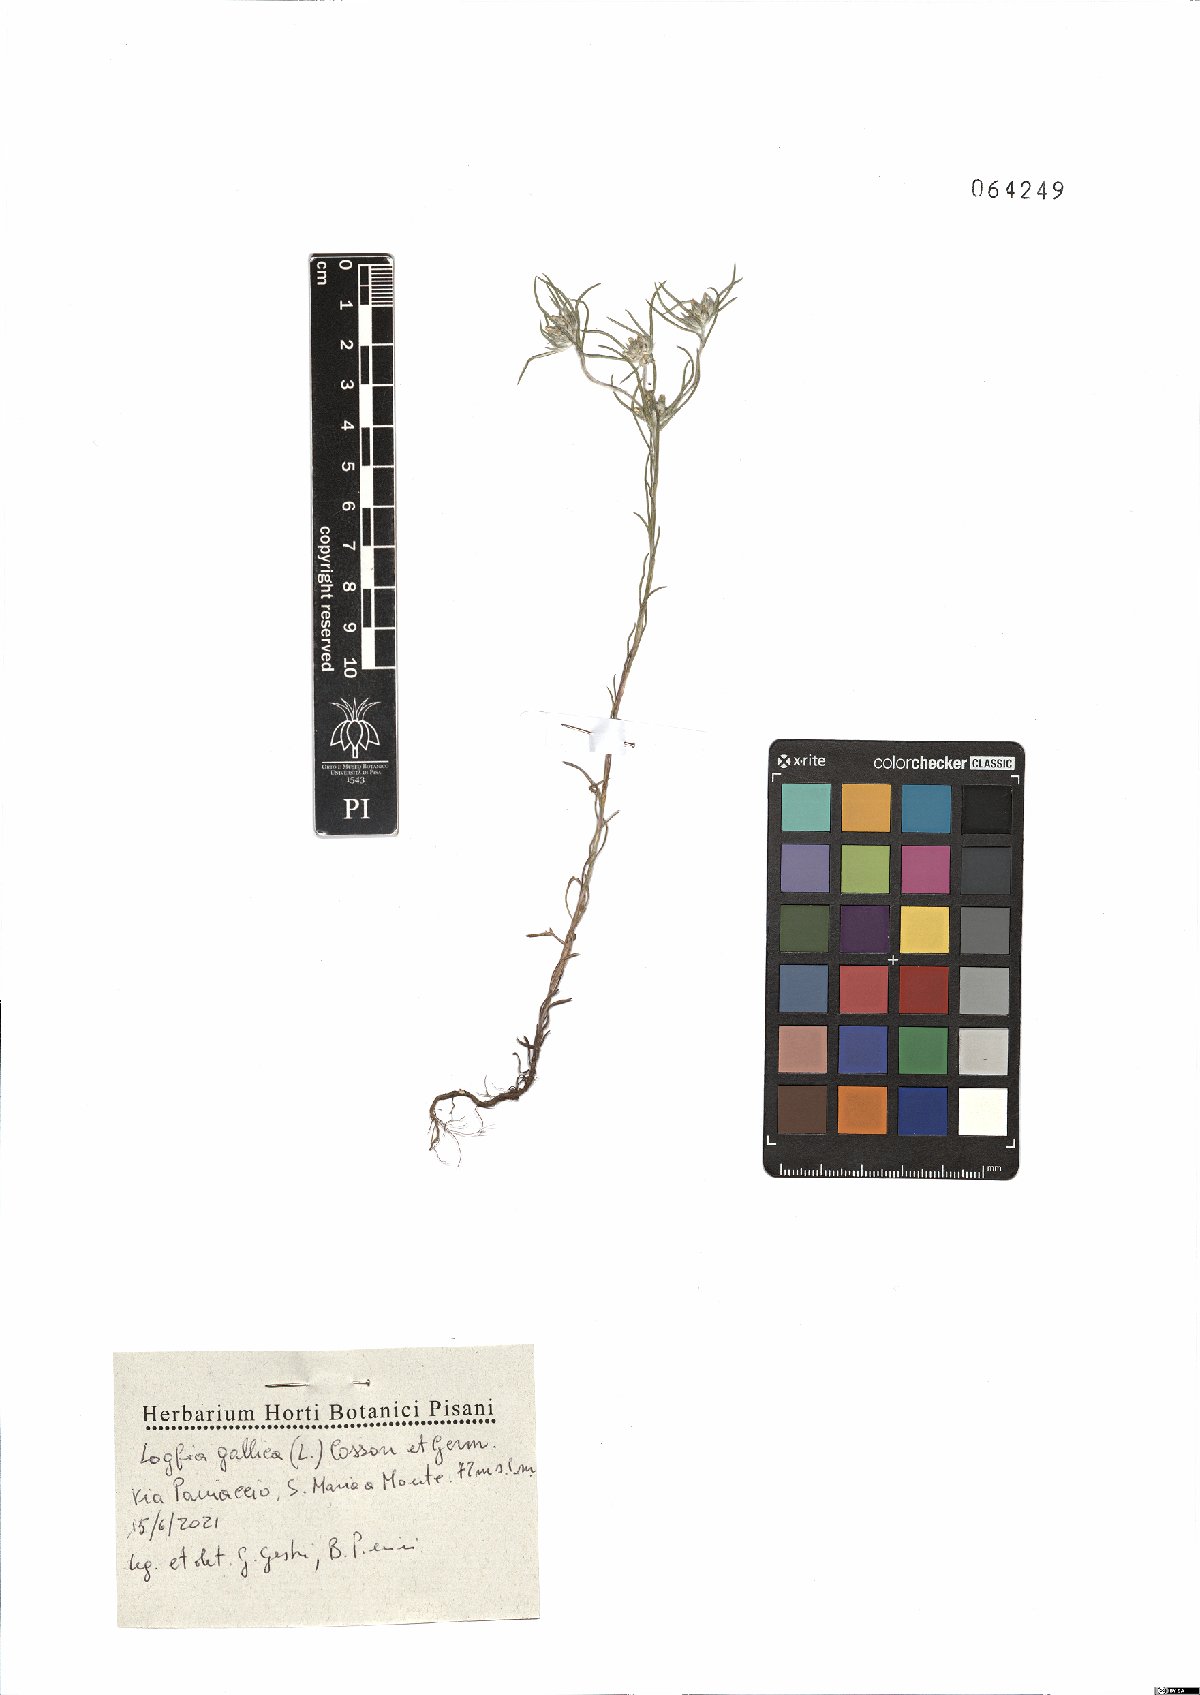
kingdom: Plantae
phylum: Tracheophyta
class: Magnoliopsida
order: Asterales
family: Asteraceae
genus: Logfia
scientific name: Logfia gallica
